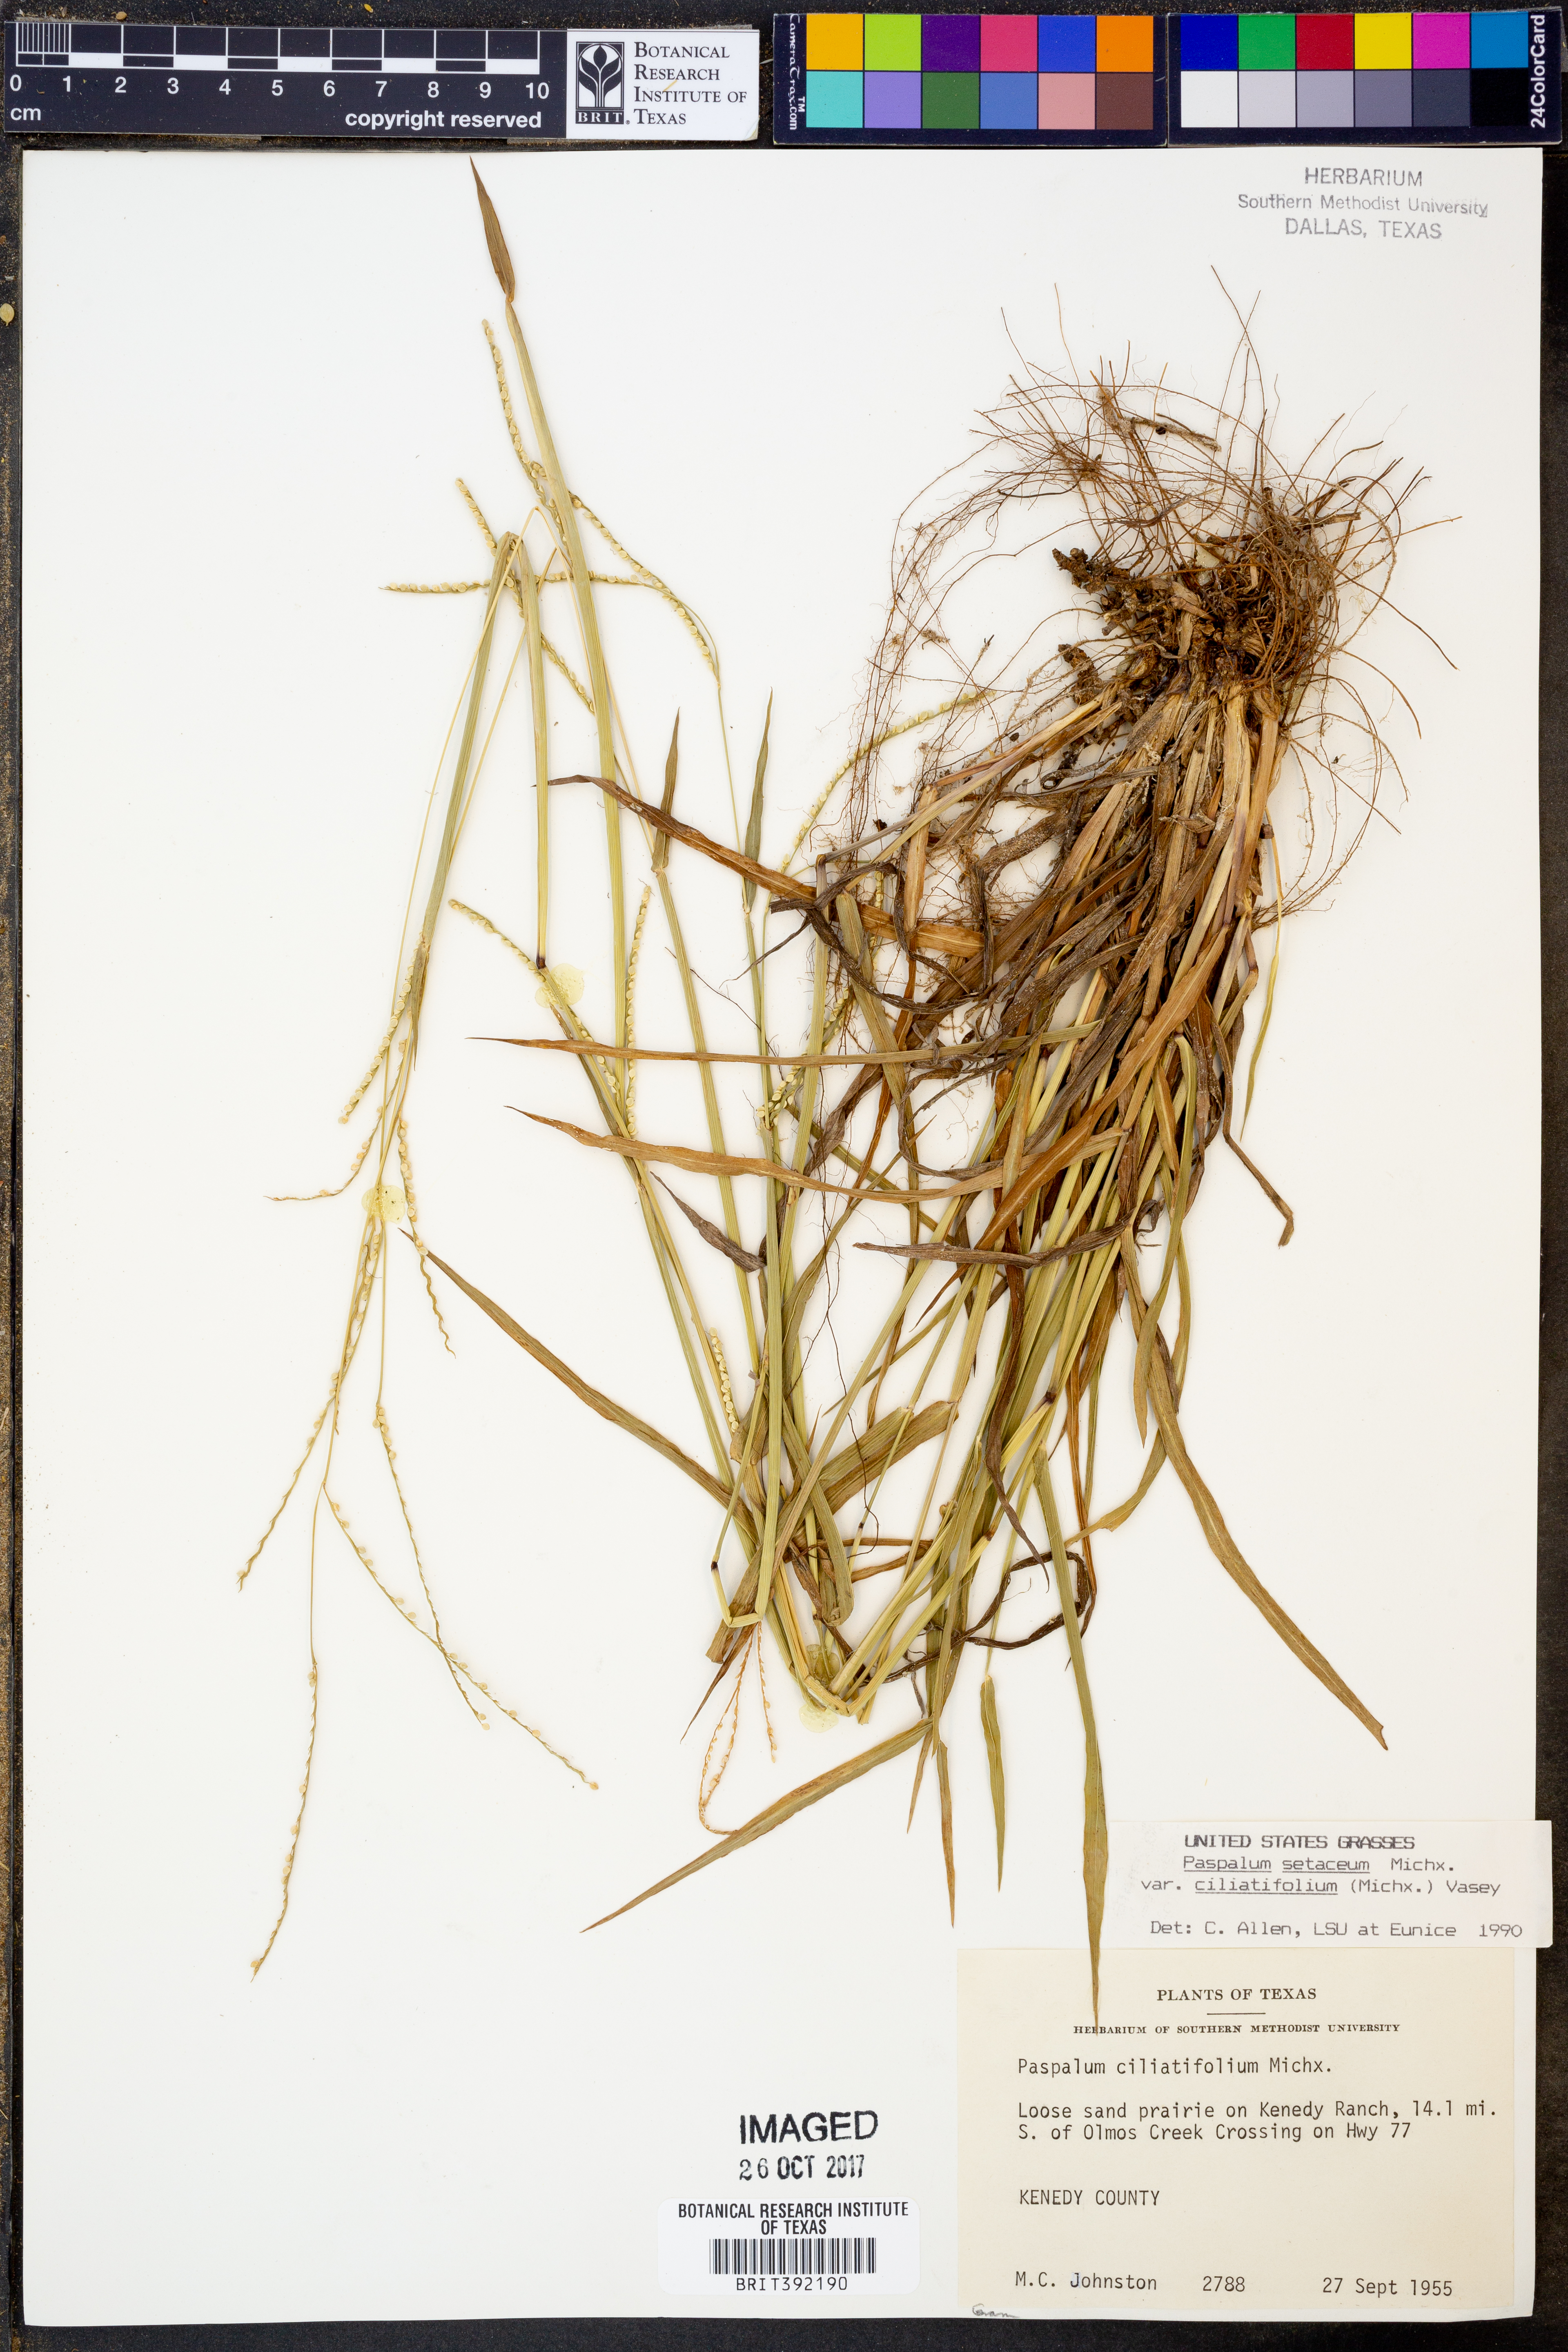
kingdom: Plantae
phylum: Tracheophyta
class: Liliopsida
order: Poales
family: Poaceae
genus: Paspalum
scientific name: Paspalum setaceum
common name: Slender paspalum
